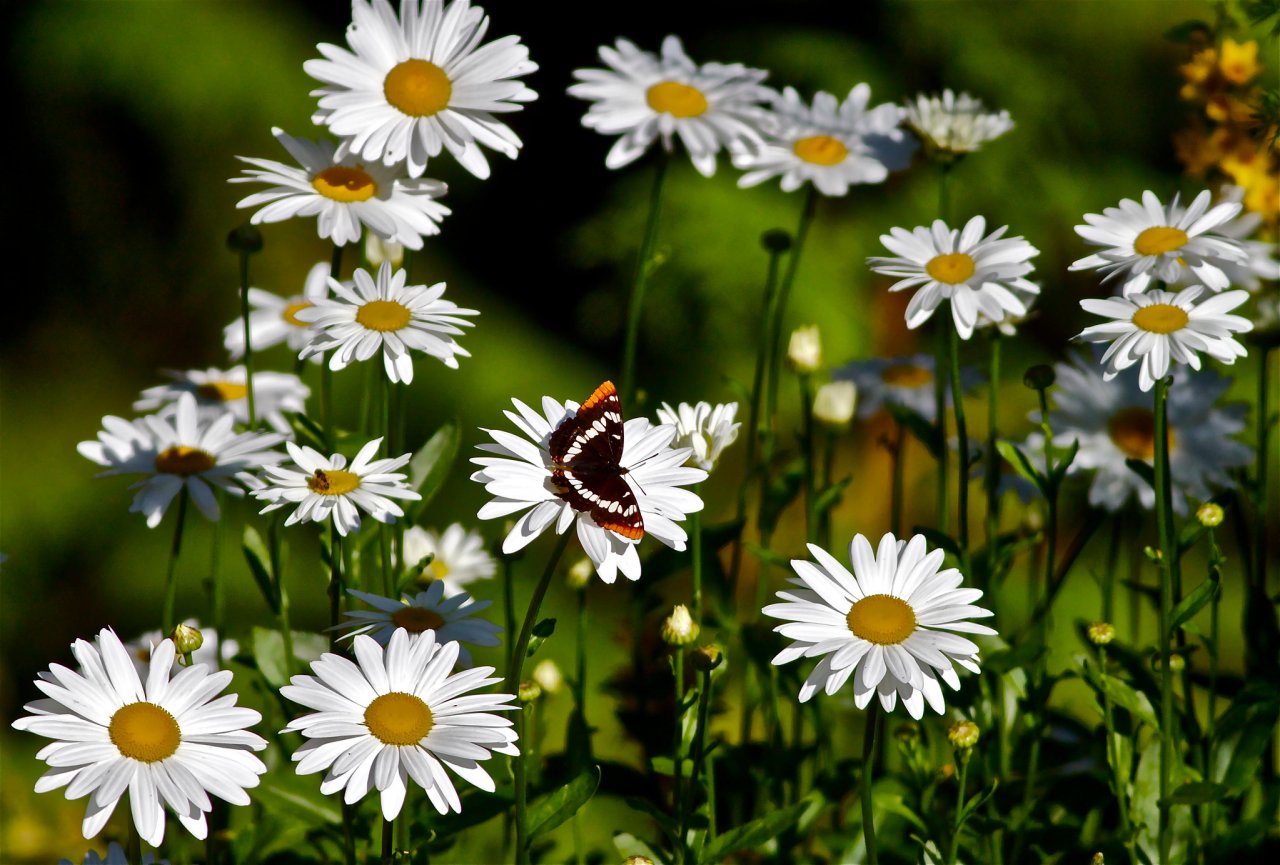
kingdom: Animalia
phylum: Arthropoda
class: Insecta
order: Lepidoptera
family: Nymphalidae
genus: Limenitis
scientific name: Limenitis lorquini
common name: Lorquin's Admiral
